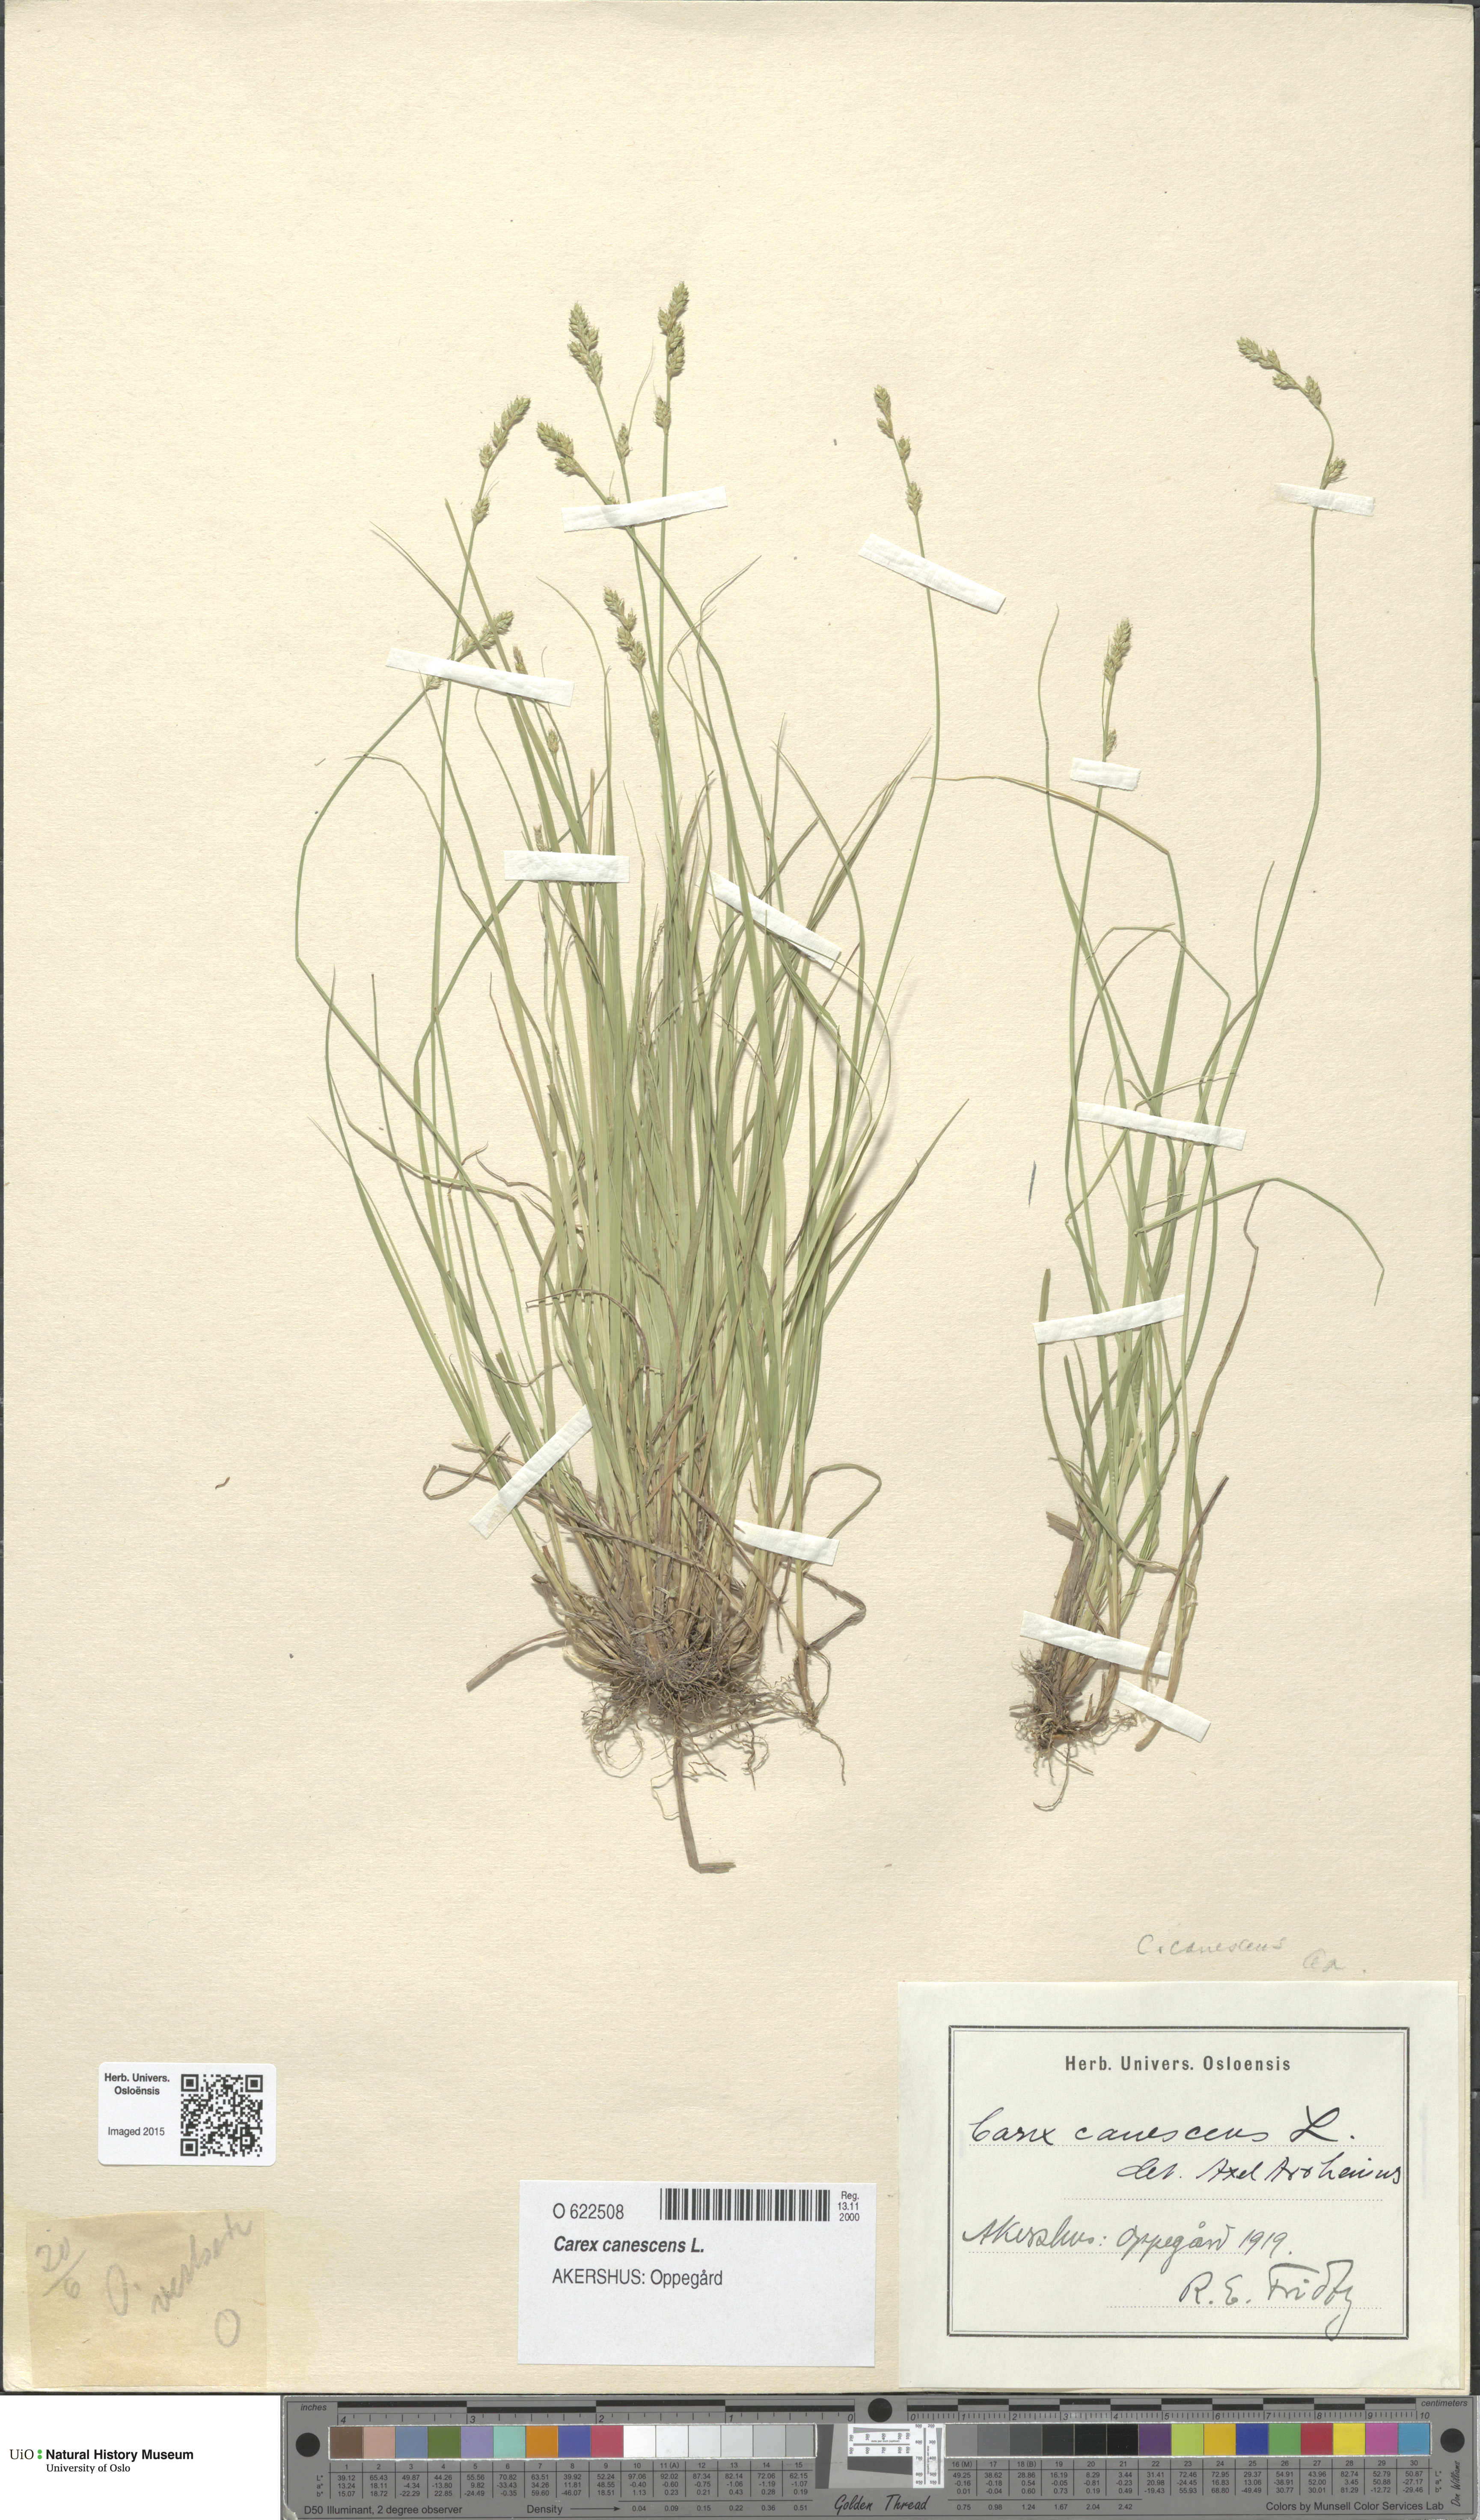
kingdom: Plantae
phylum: Tracheophyta
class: Liliopsida
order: Poales
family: Cyperaceae
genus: Carex
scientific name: Carex canescens
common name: White sedge
